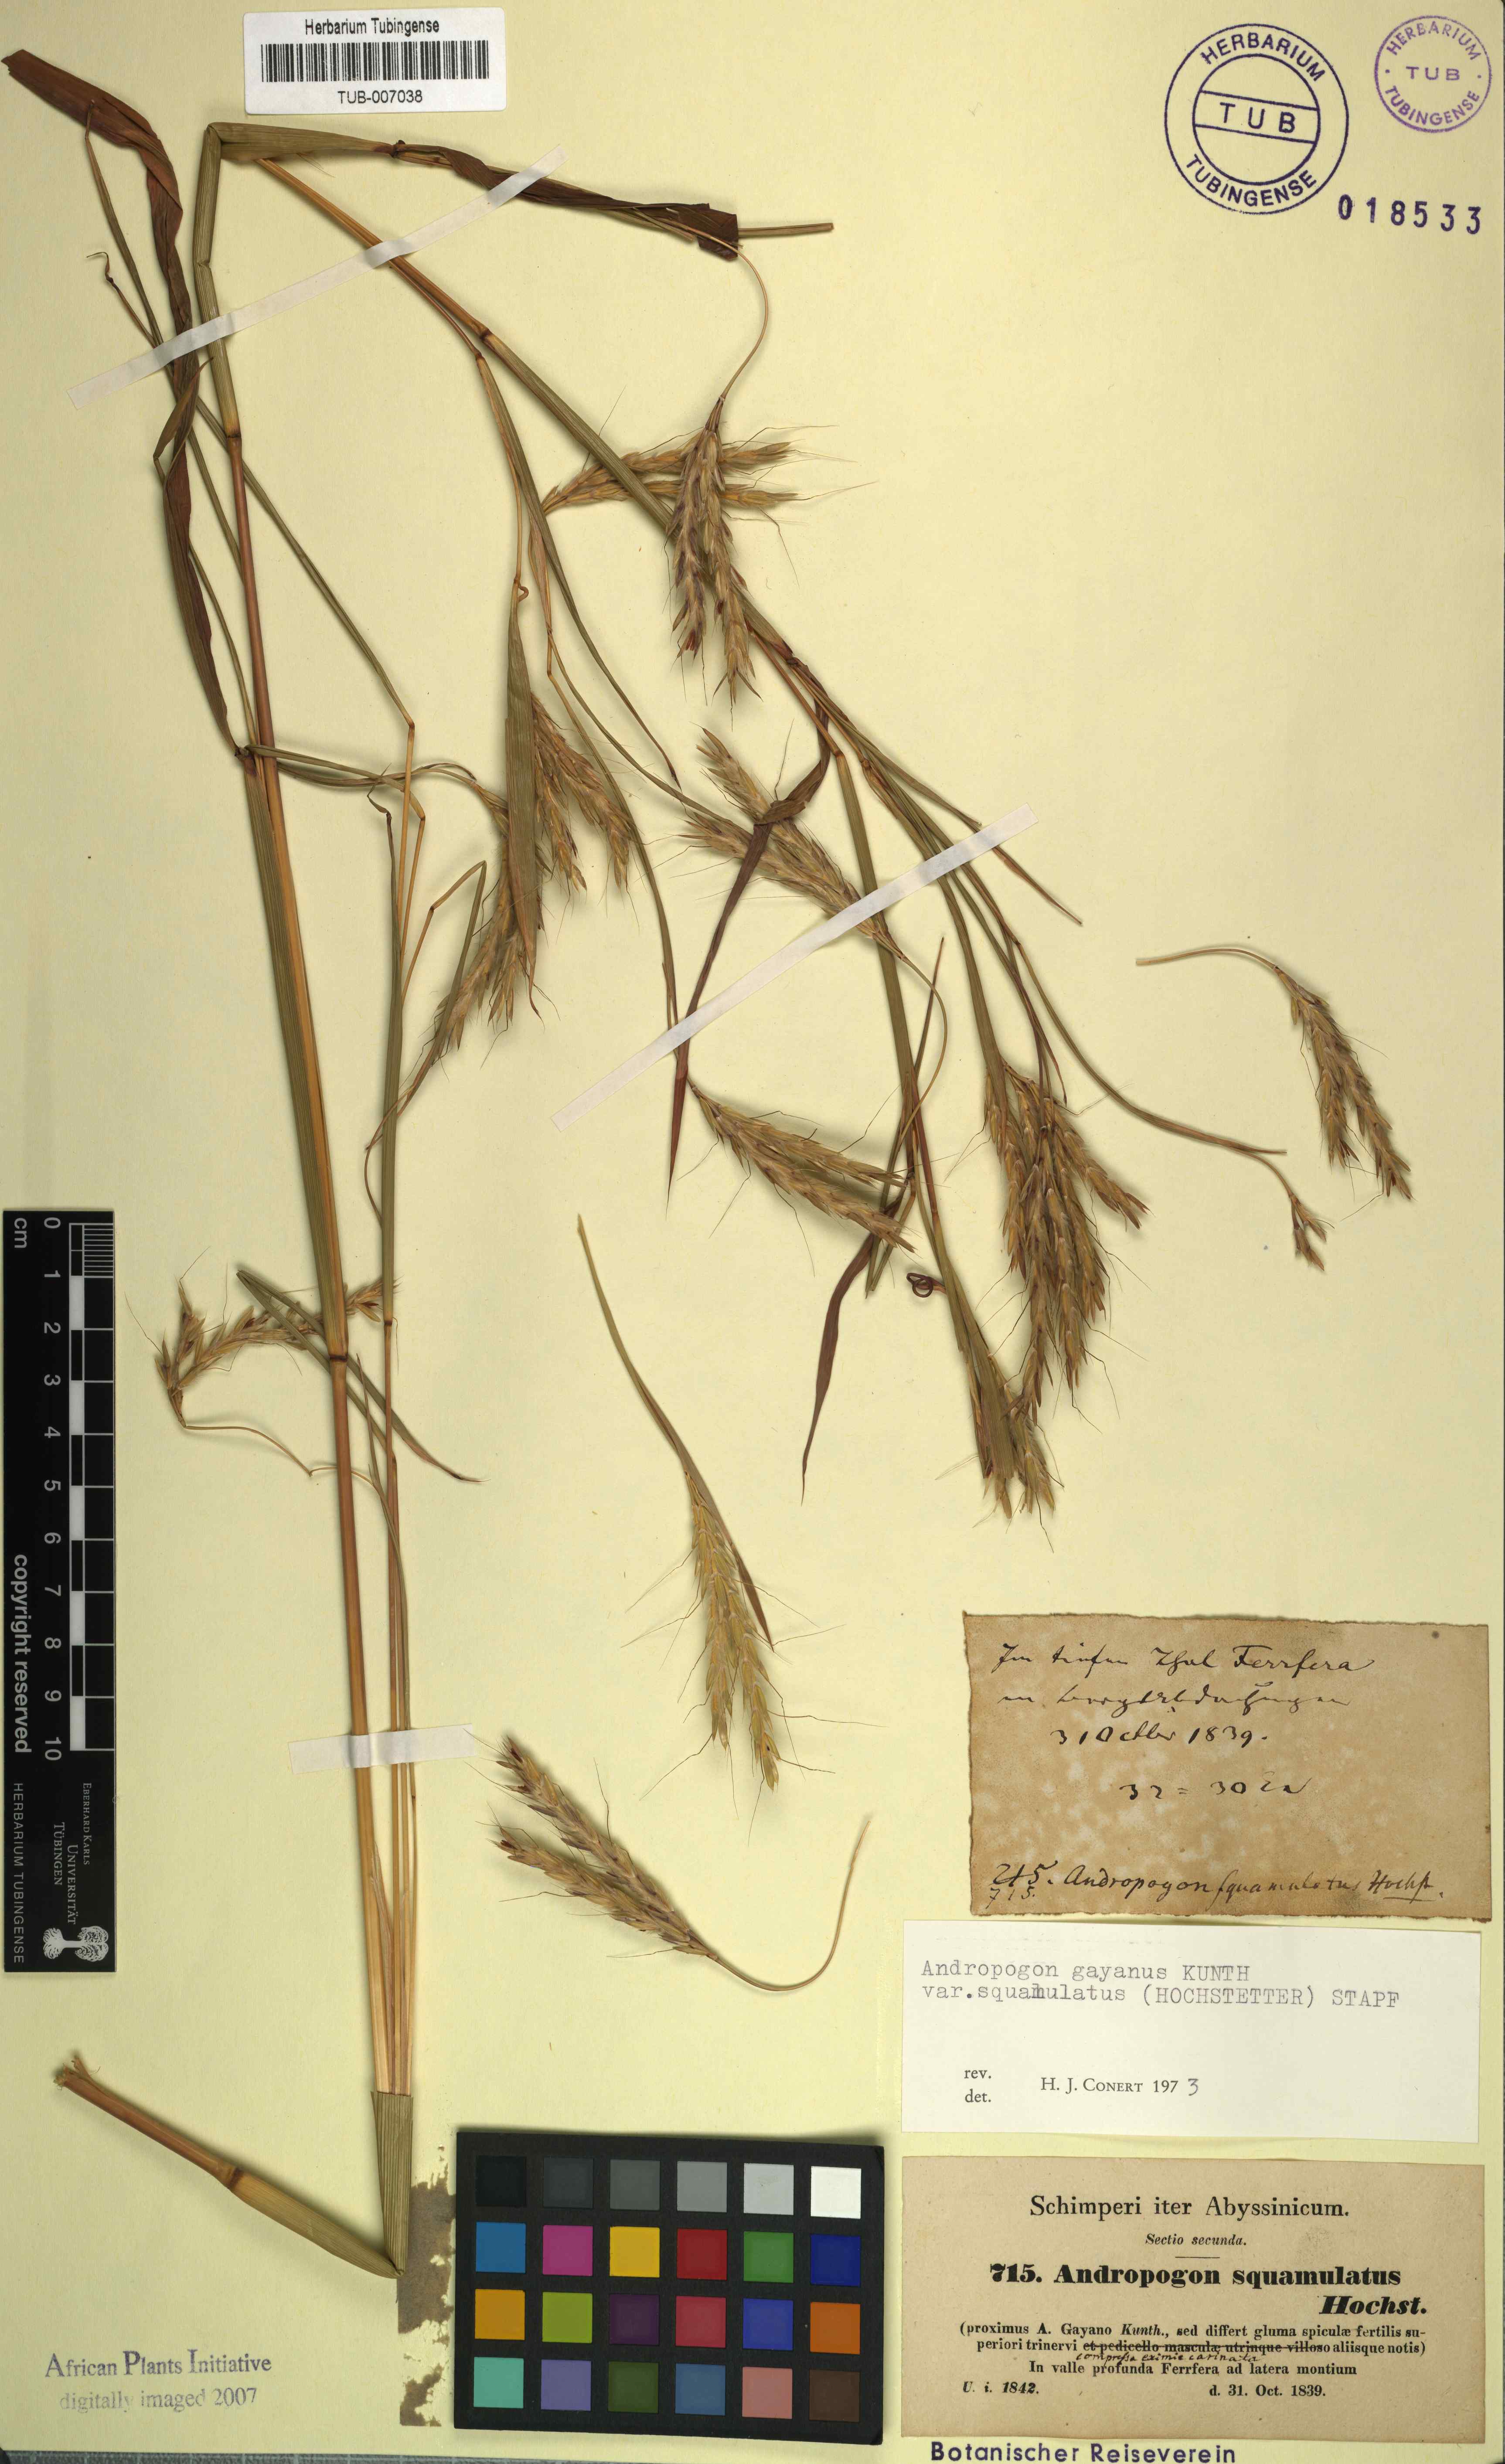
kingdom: Plantae
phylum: Tracheophyta
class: Liliopsida
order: Poales
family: Poaceae
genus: Andropogon
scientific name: Andropogon gayanus
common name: Tambuki grass
